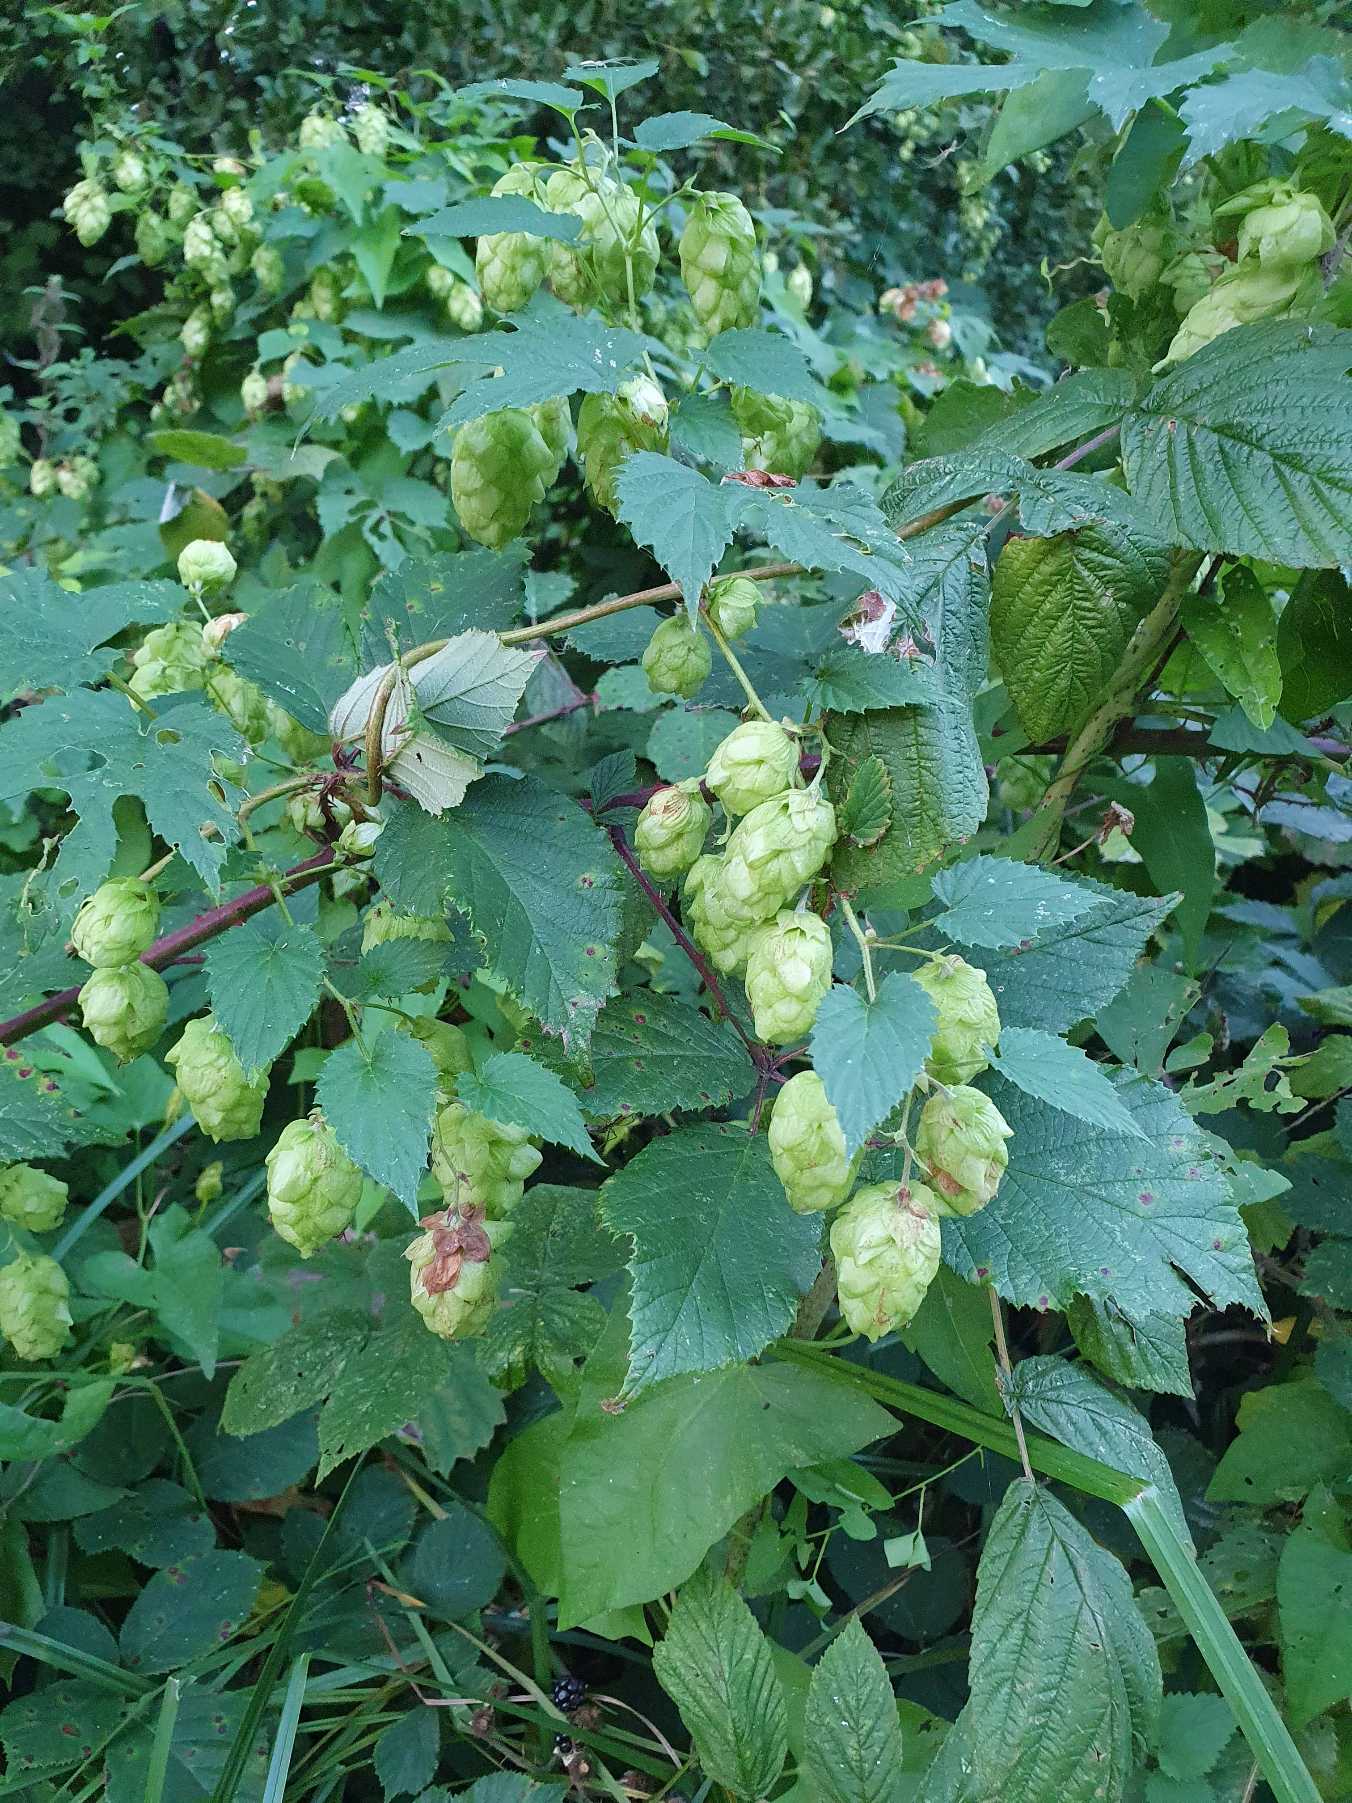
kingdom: Plantae
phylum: Tracheophyta
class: Magnoliopsida
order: Rosales
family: Cannabaceae
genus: Humulus
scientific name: Humulus lupulus
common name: Humle
